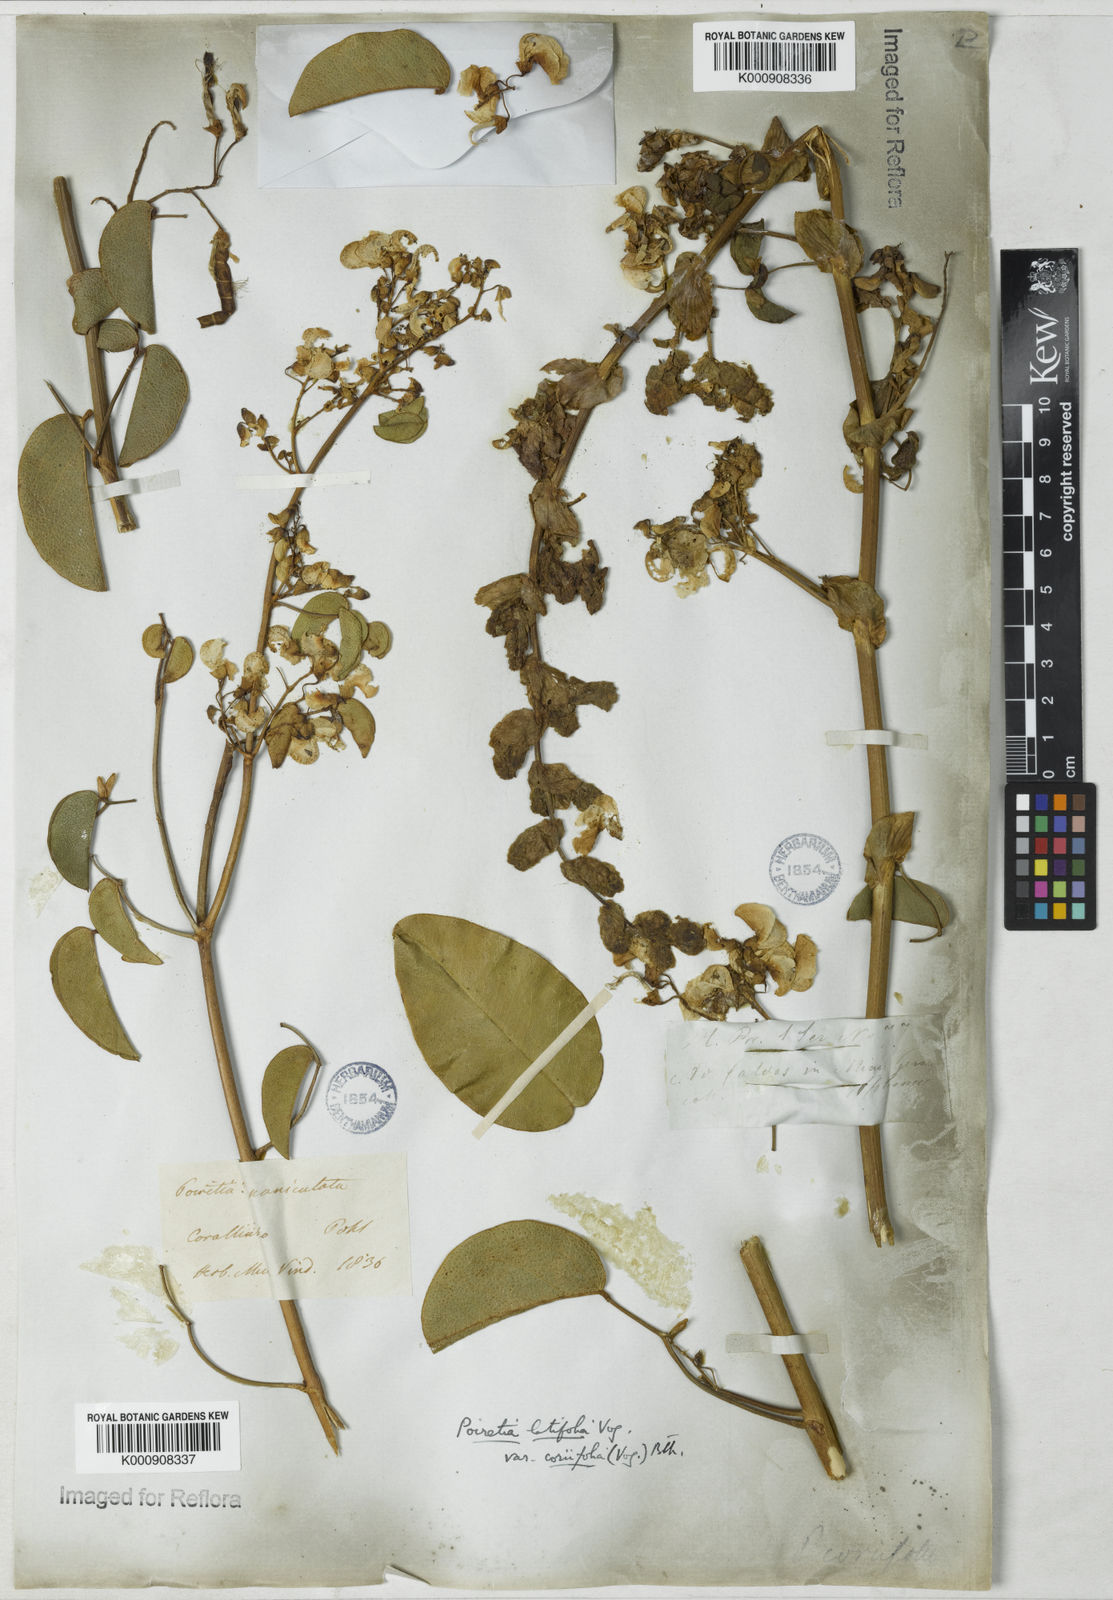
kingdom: Plantae
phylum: Tracheophyta
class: Magnoliopsida
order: Fabales
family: Fabaceae
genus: Poiretia
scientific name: Poiretia coriifolia
